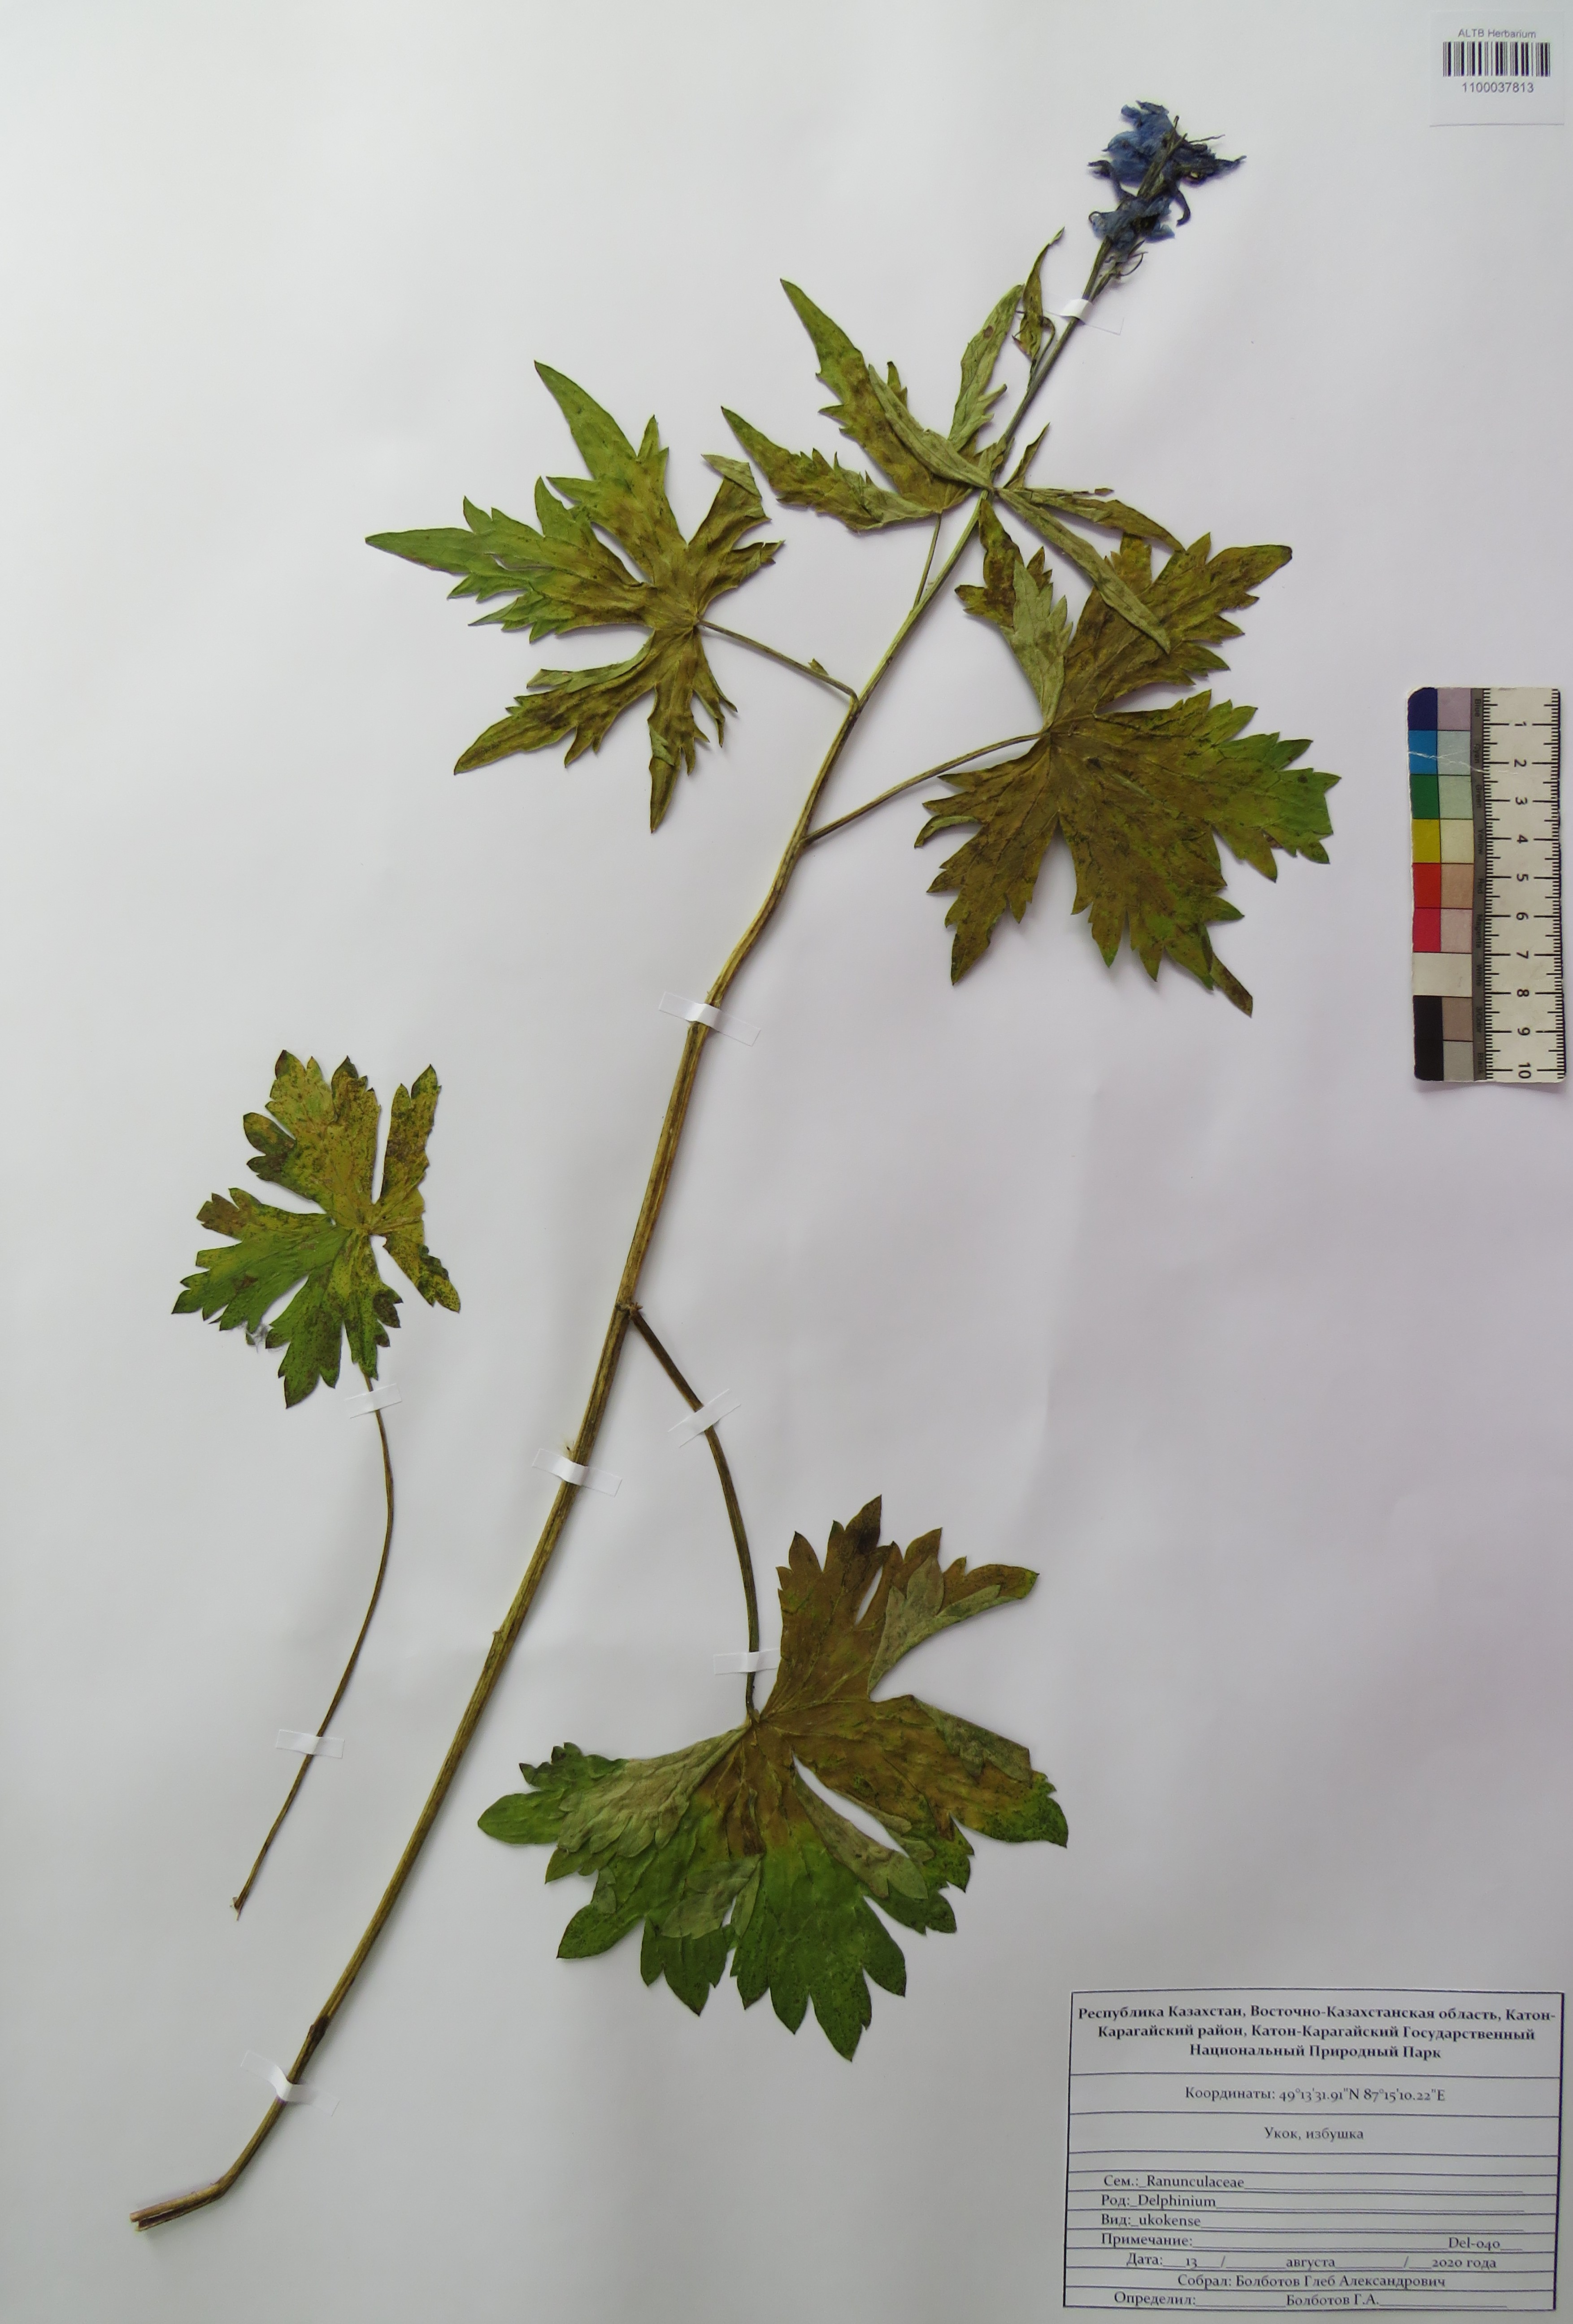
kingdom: Plantae
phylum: Tracheophyta
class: Magnoliopsida
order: Ranunculales
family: Ranunculaceae
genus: Delphinium
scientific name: Delphinium ukokense
